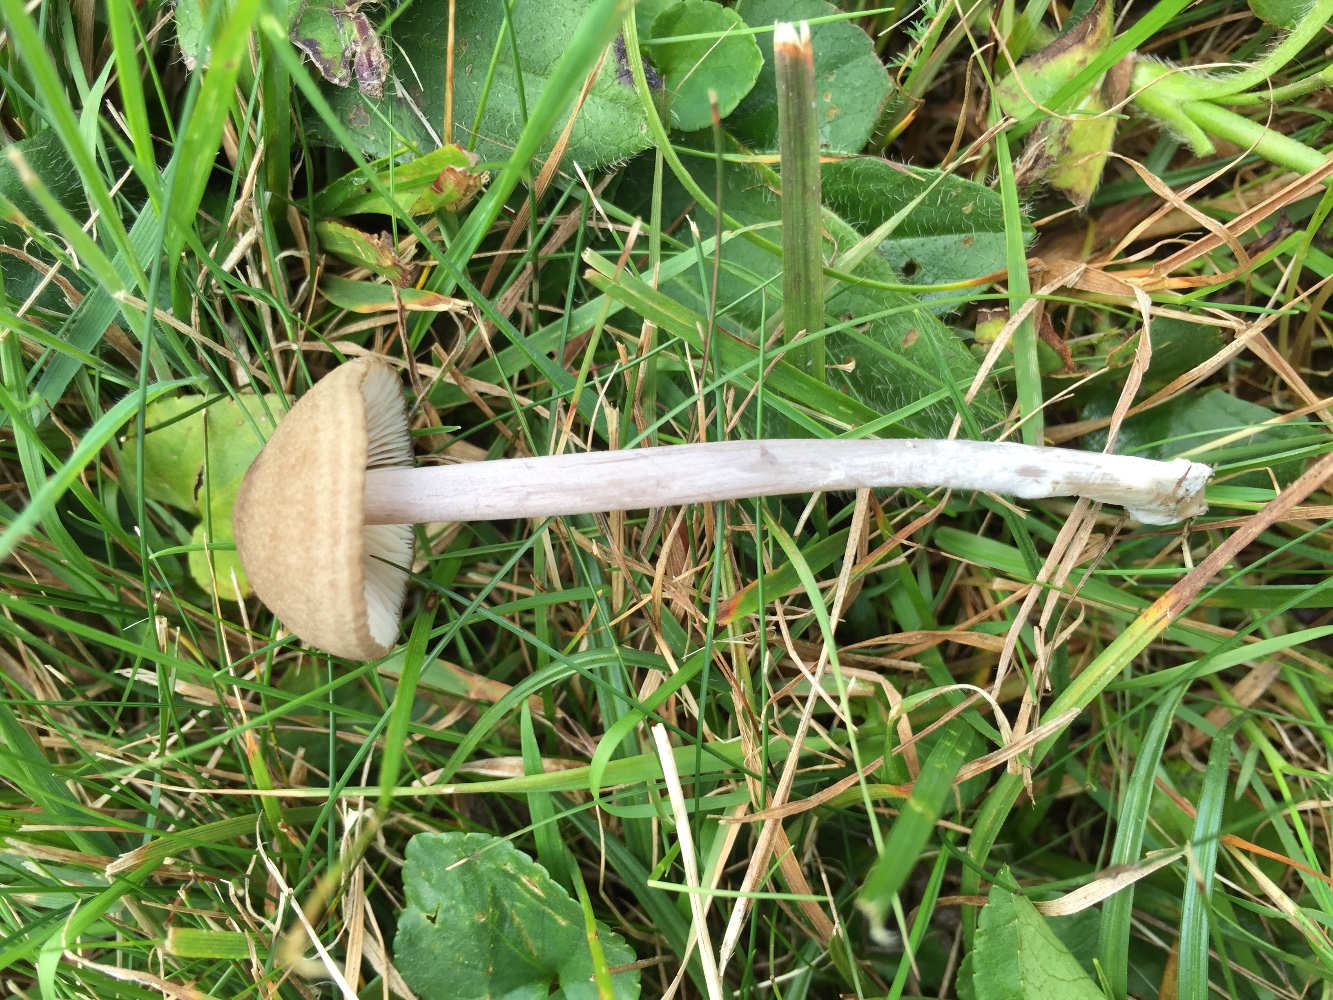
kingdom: Fungi
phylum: Basidiomycota
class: Agaricomycetes
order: Agaricales
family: Entolomataceae
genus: Entoloma
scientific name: Entoloma griseocyaneum
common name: gråblå rødblad
